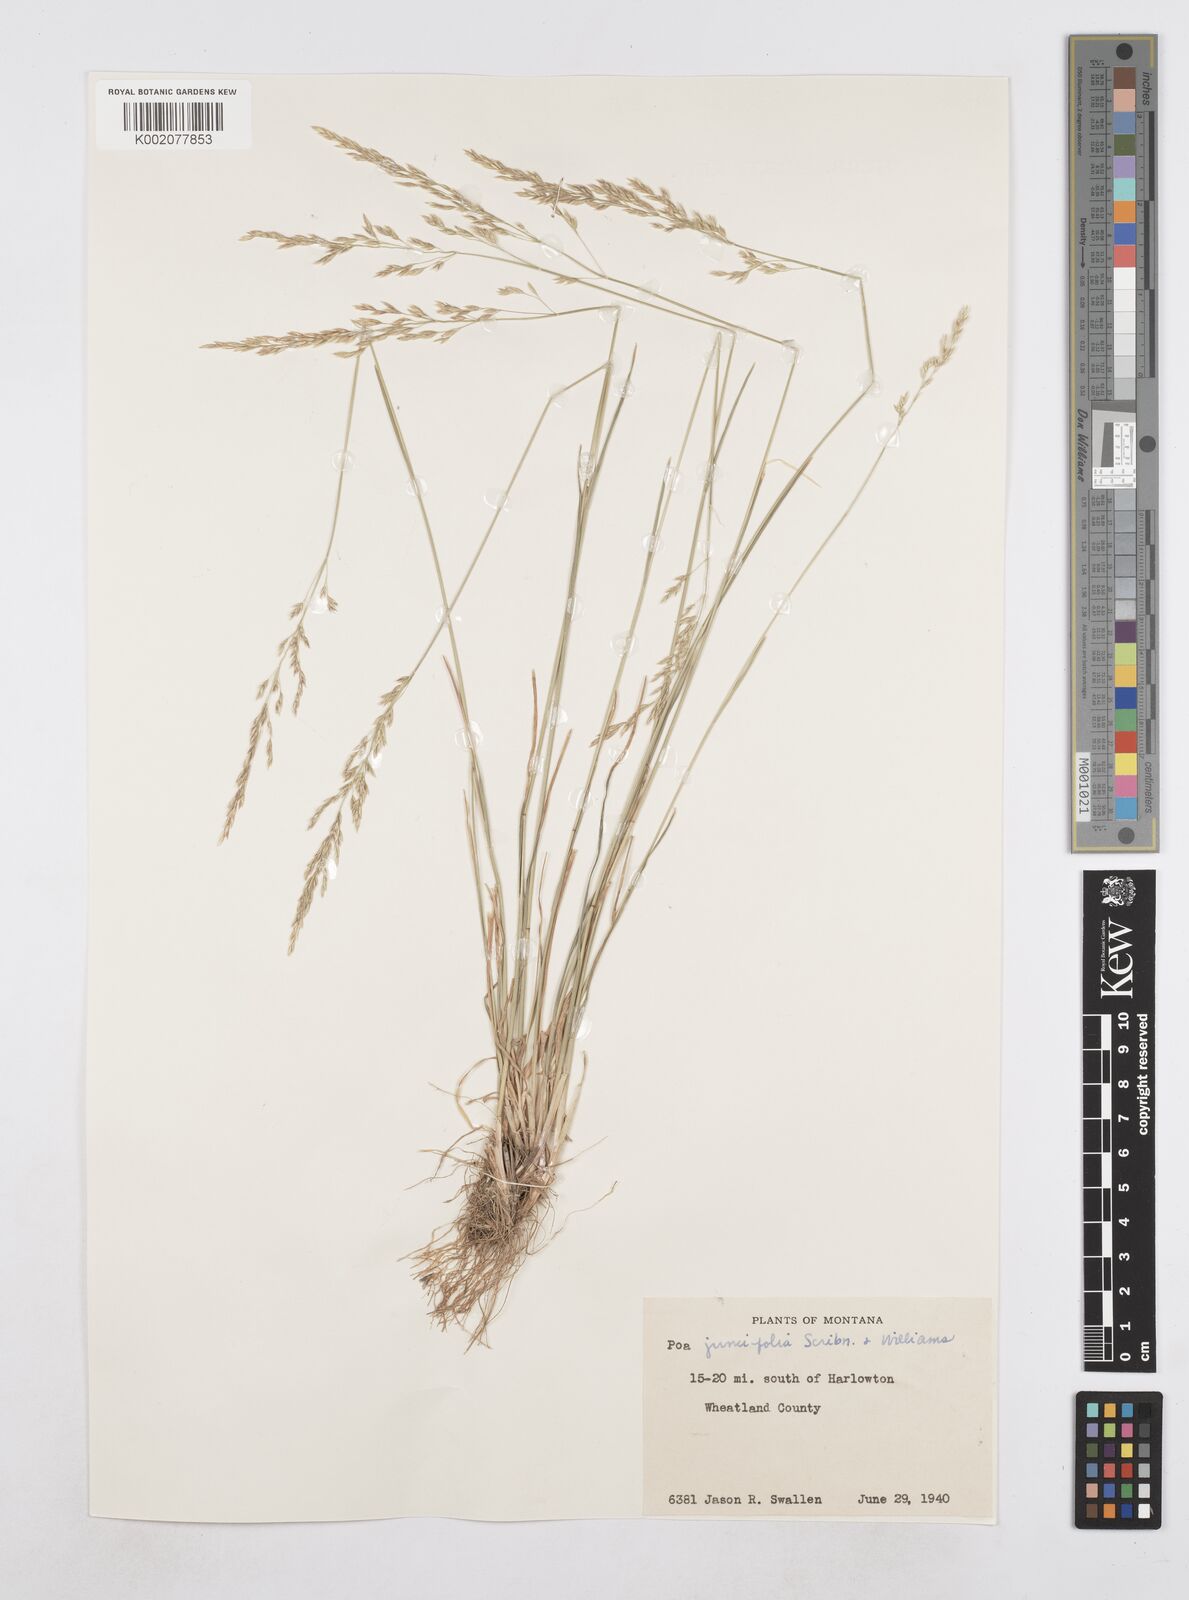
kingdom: Plantae
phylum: Tracheophyta
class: Liliopsida
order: Poales
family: Poaceae
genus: Poa
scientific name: Poa secunda
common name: Sandberg bluegrass
